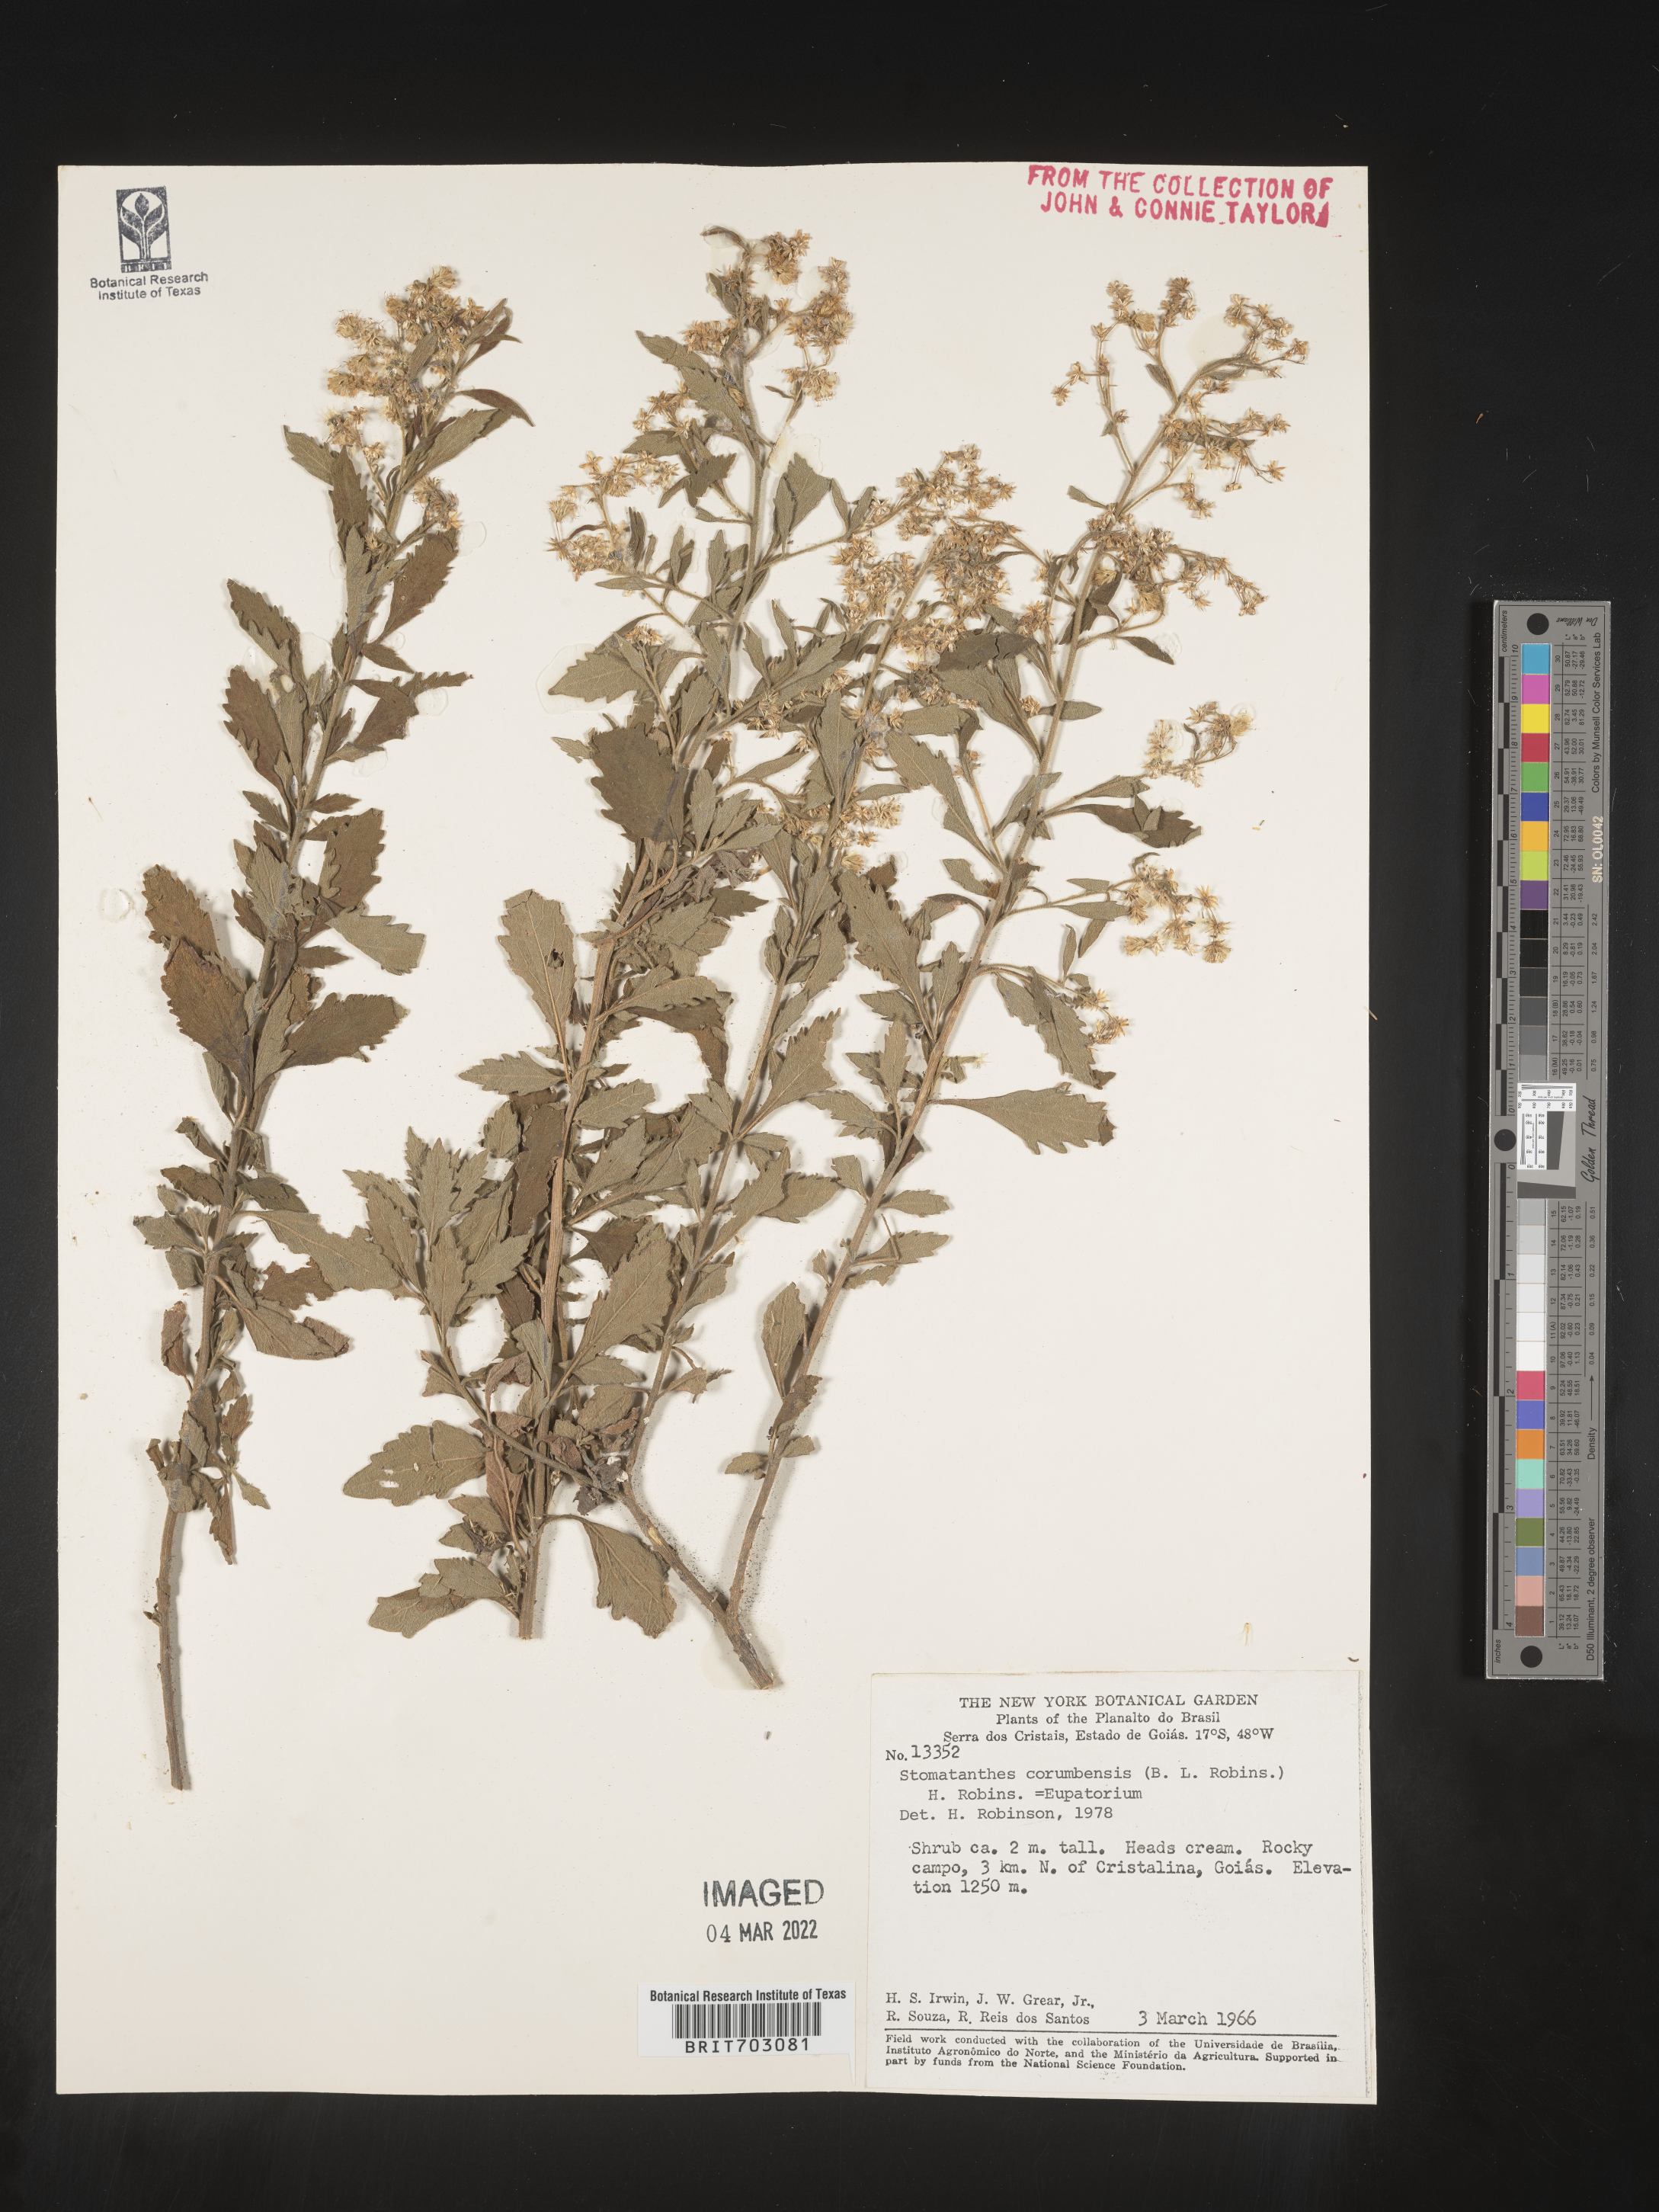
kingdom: Plantae
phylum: Tracheophyta
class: Magnoliopsida
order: Asterales
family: Asteraceae
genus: Eupatorium
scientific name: Eupatorium
